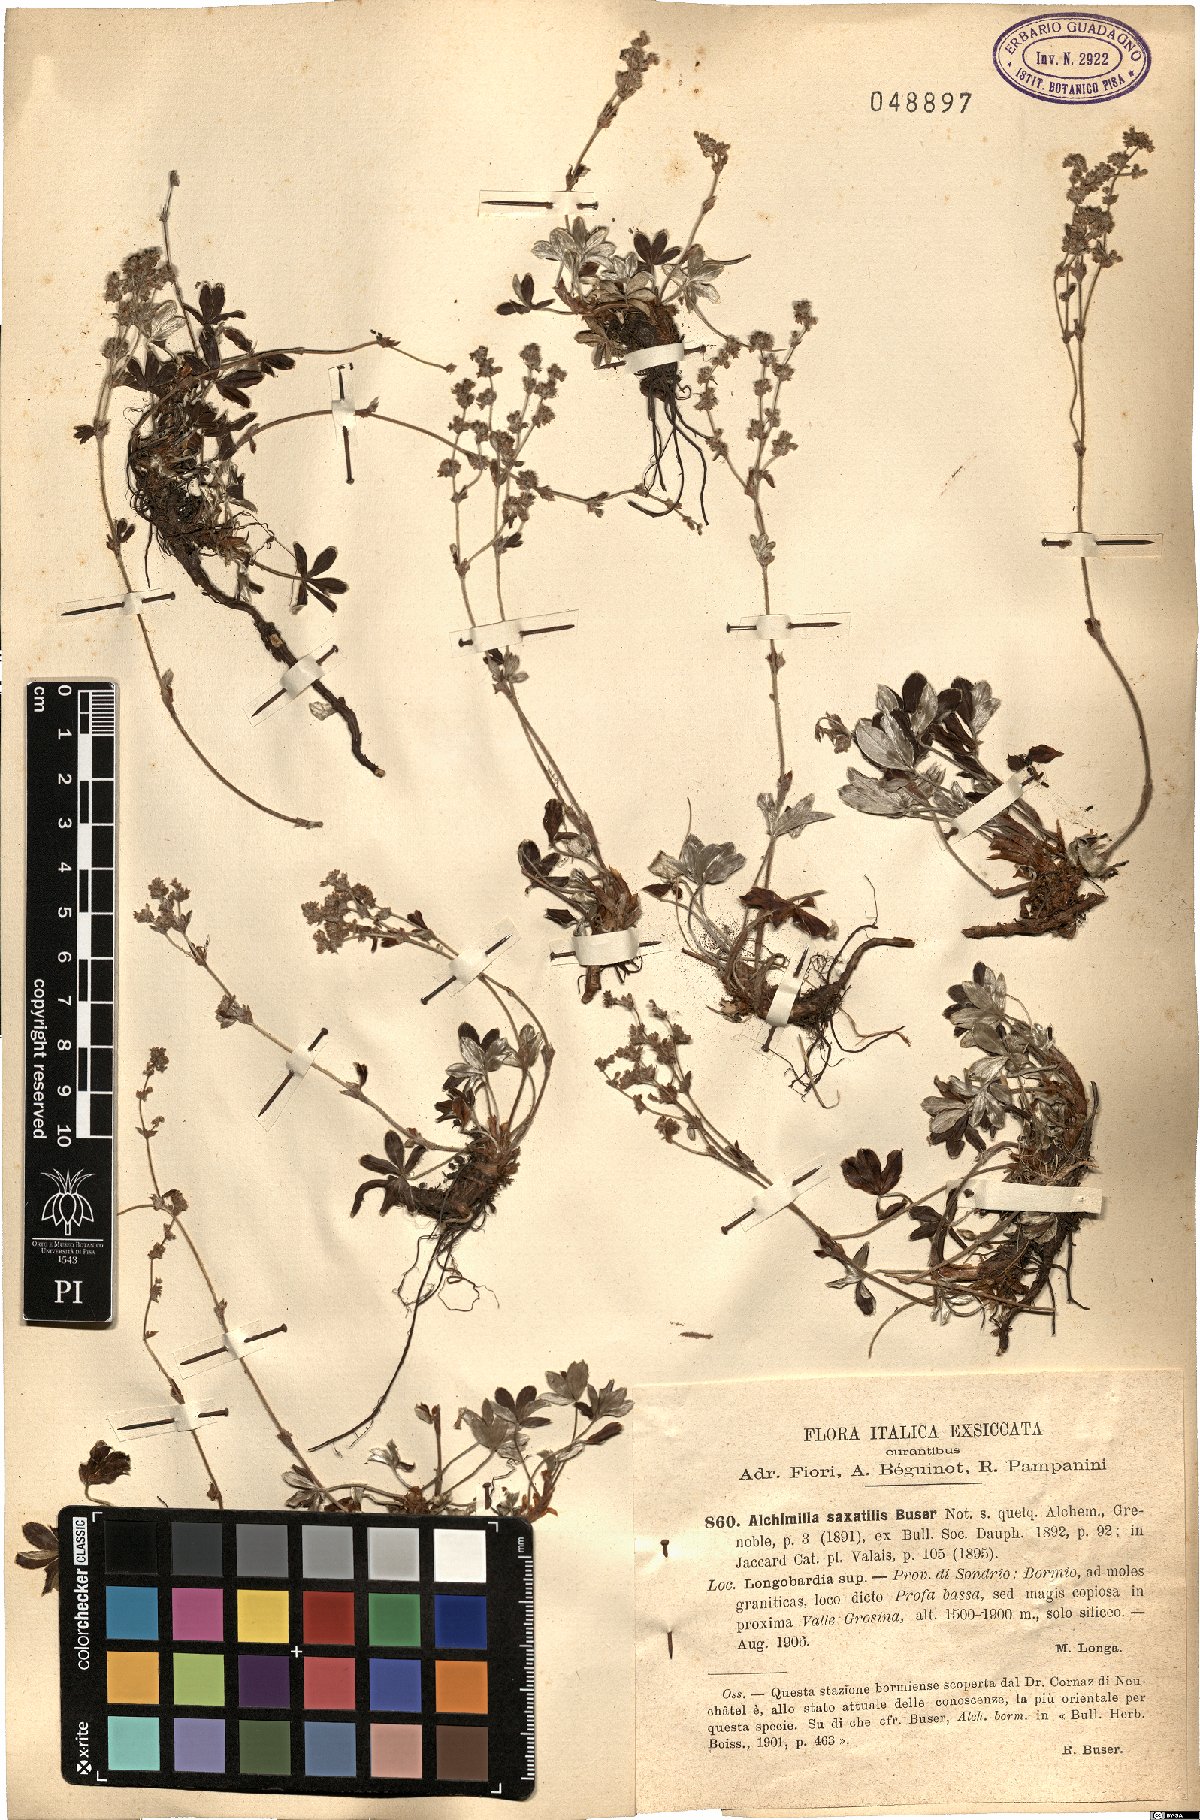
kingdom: Plantae
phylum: Tracheophyta
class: Magnoliopsida
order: Rosales
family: Rosaceae
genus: Alchemilla
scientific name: Alchemilla saxatilis
